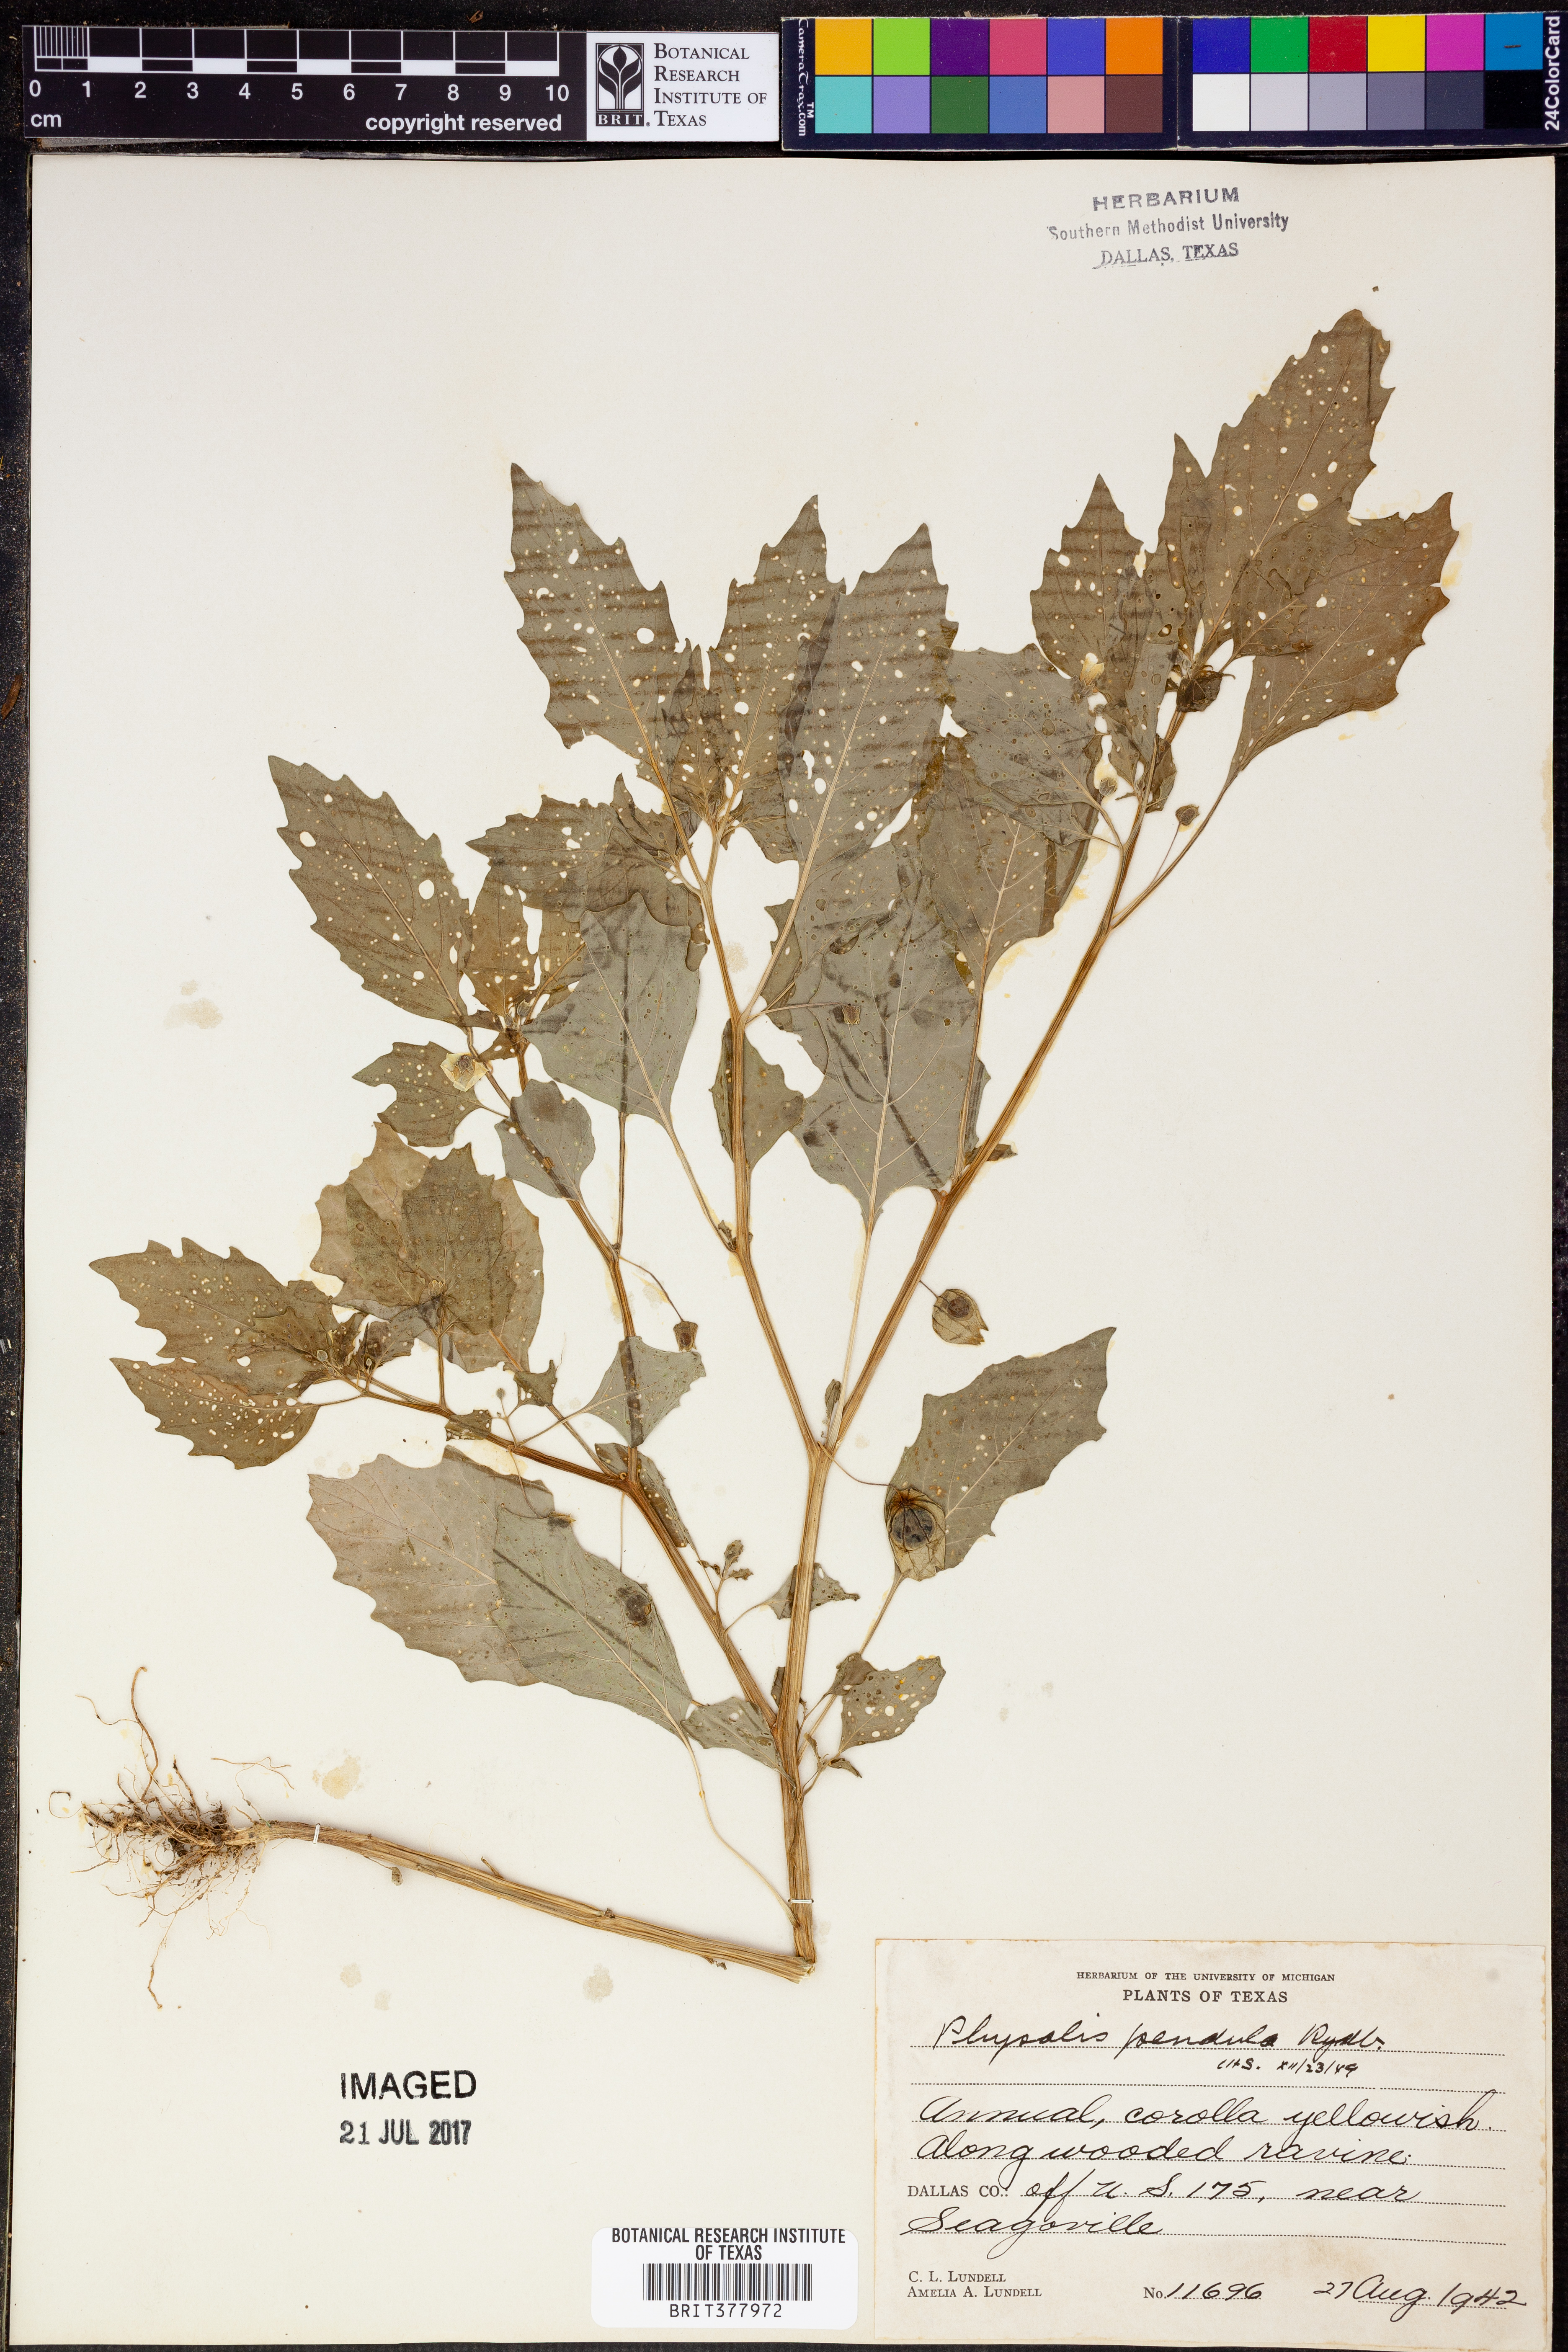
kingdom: Plantae
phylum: Tracheophyta
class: Magnoliopsida
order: Solanales
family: Solanaceae
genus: Physalis
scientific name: Physalis angulata
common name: Angular winter-cherry
